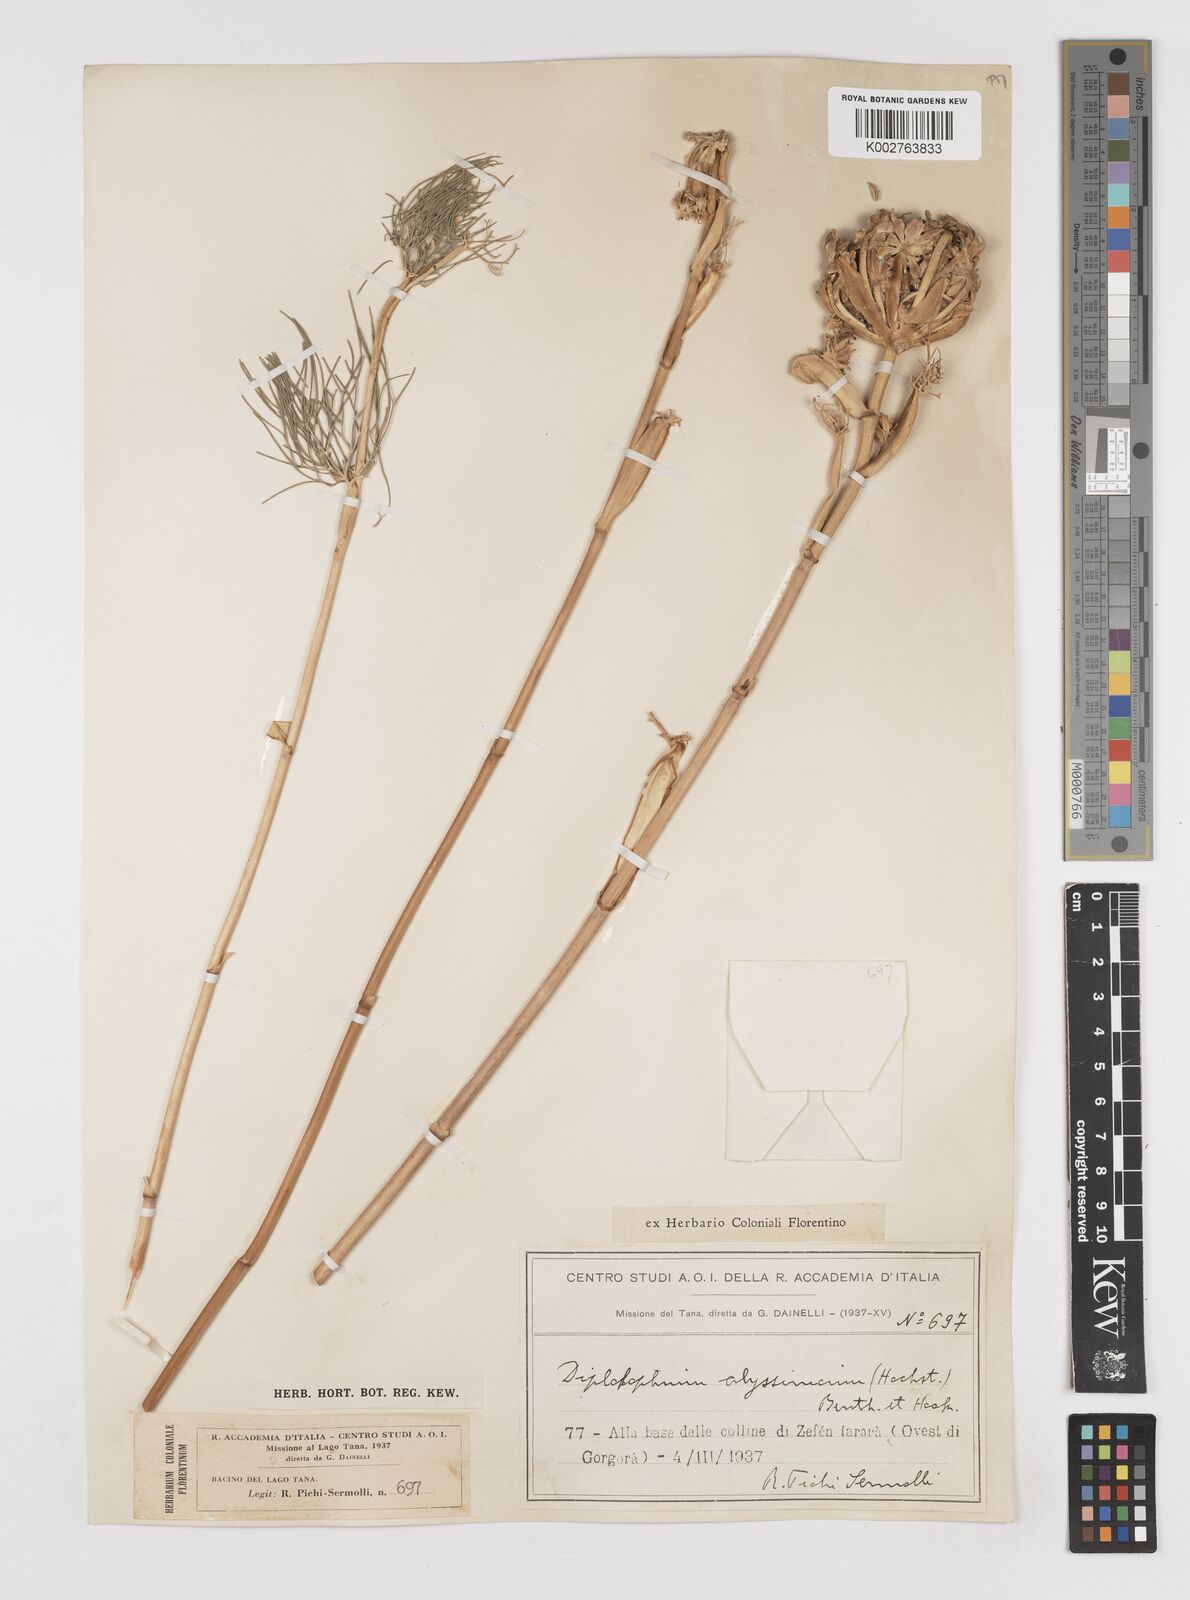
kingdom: Plantae
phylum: Tracheophyta
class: Magnoliopsida
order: Apiales
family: Apiaceae
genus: Diplolophium
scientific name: Diplolophium africanum
